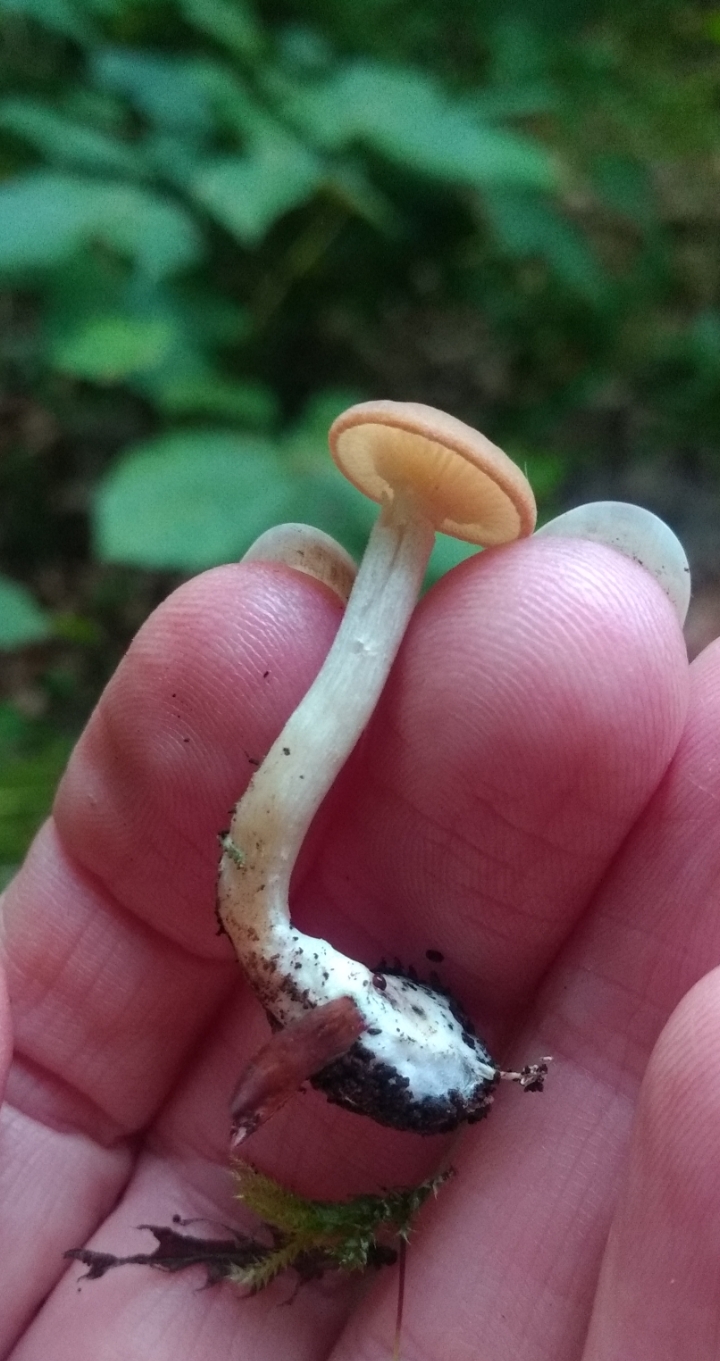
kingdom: Fungi
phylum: Basidiomycota
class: Agaricomycetes
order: Agaricales
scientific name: Agaricales
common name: champignonordenen
